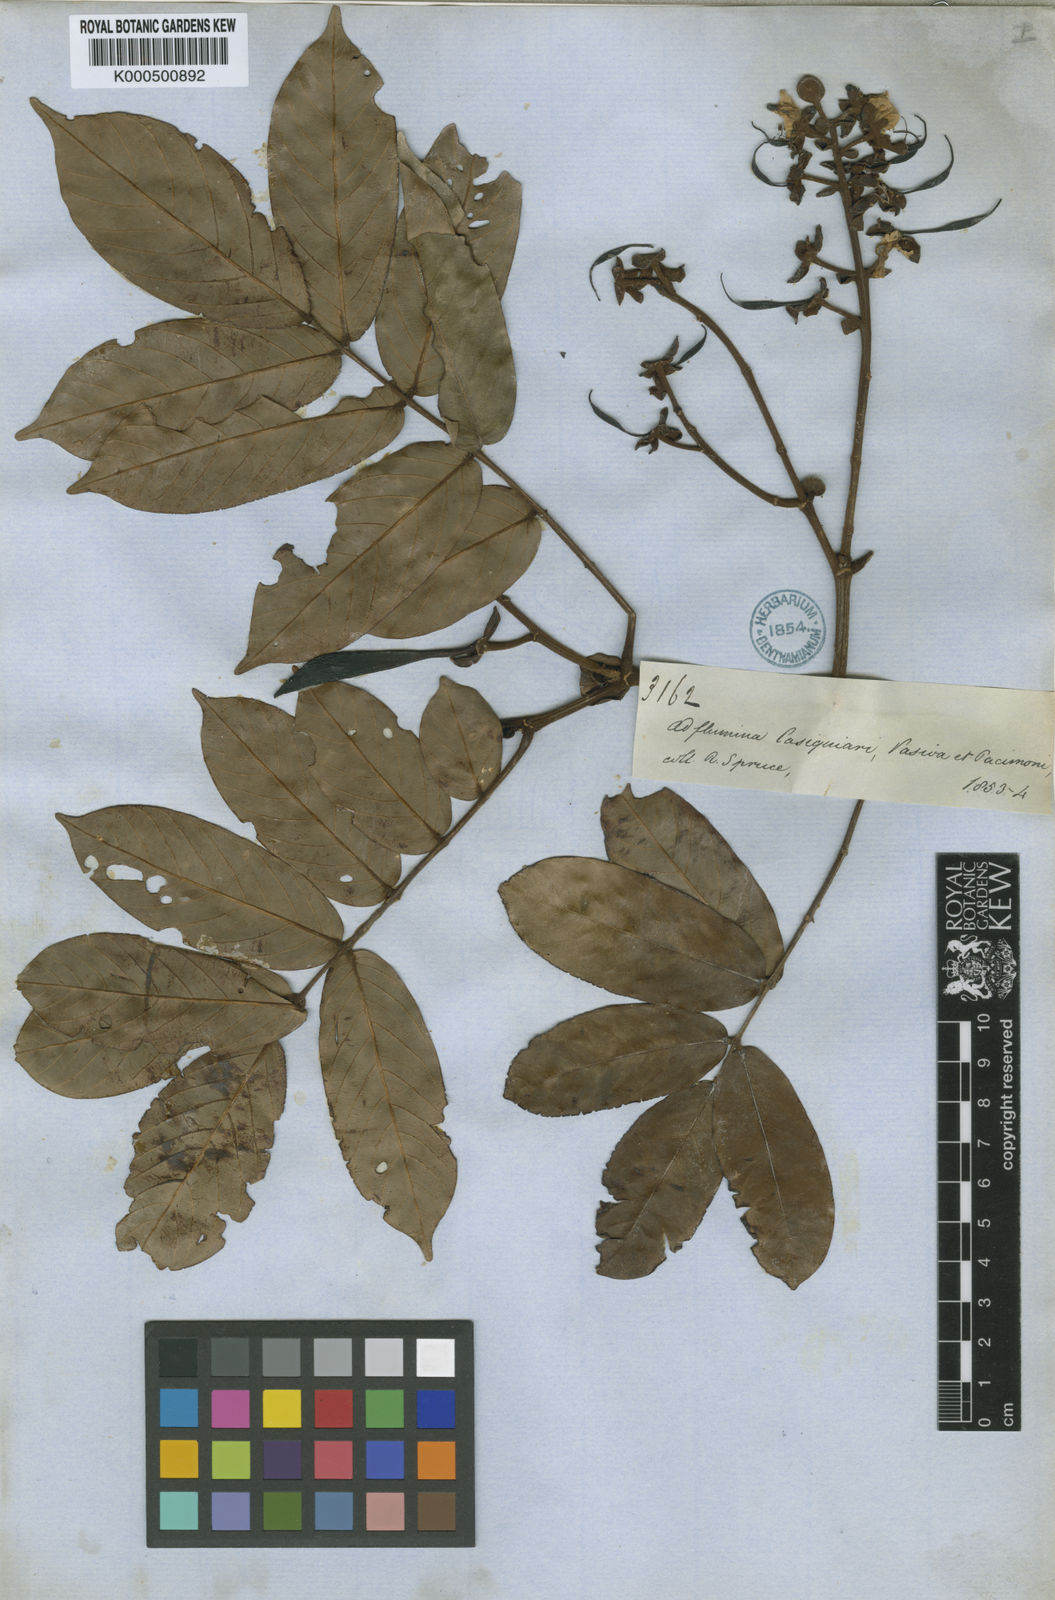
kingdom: Plantae
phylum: Tracheophyta
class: Magnoliopsida
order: Fabales
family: Fabaceae
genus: Swartzia
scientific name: Swartzia sprucei
